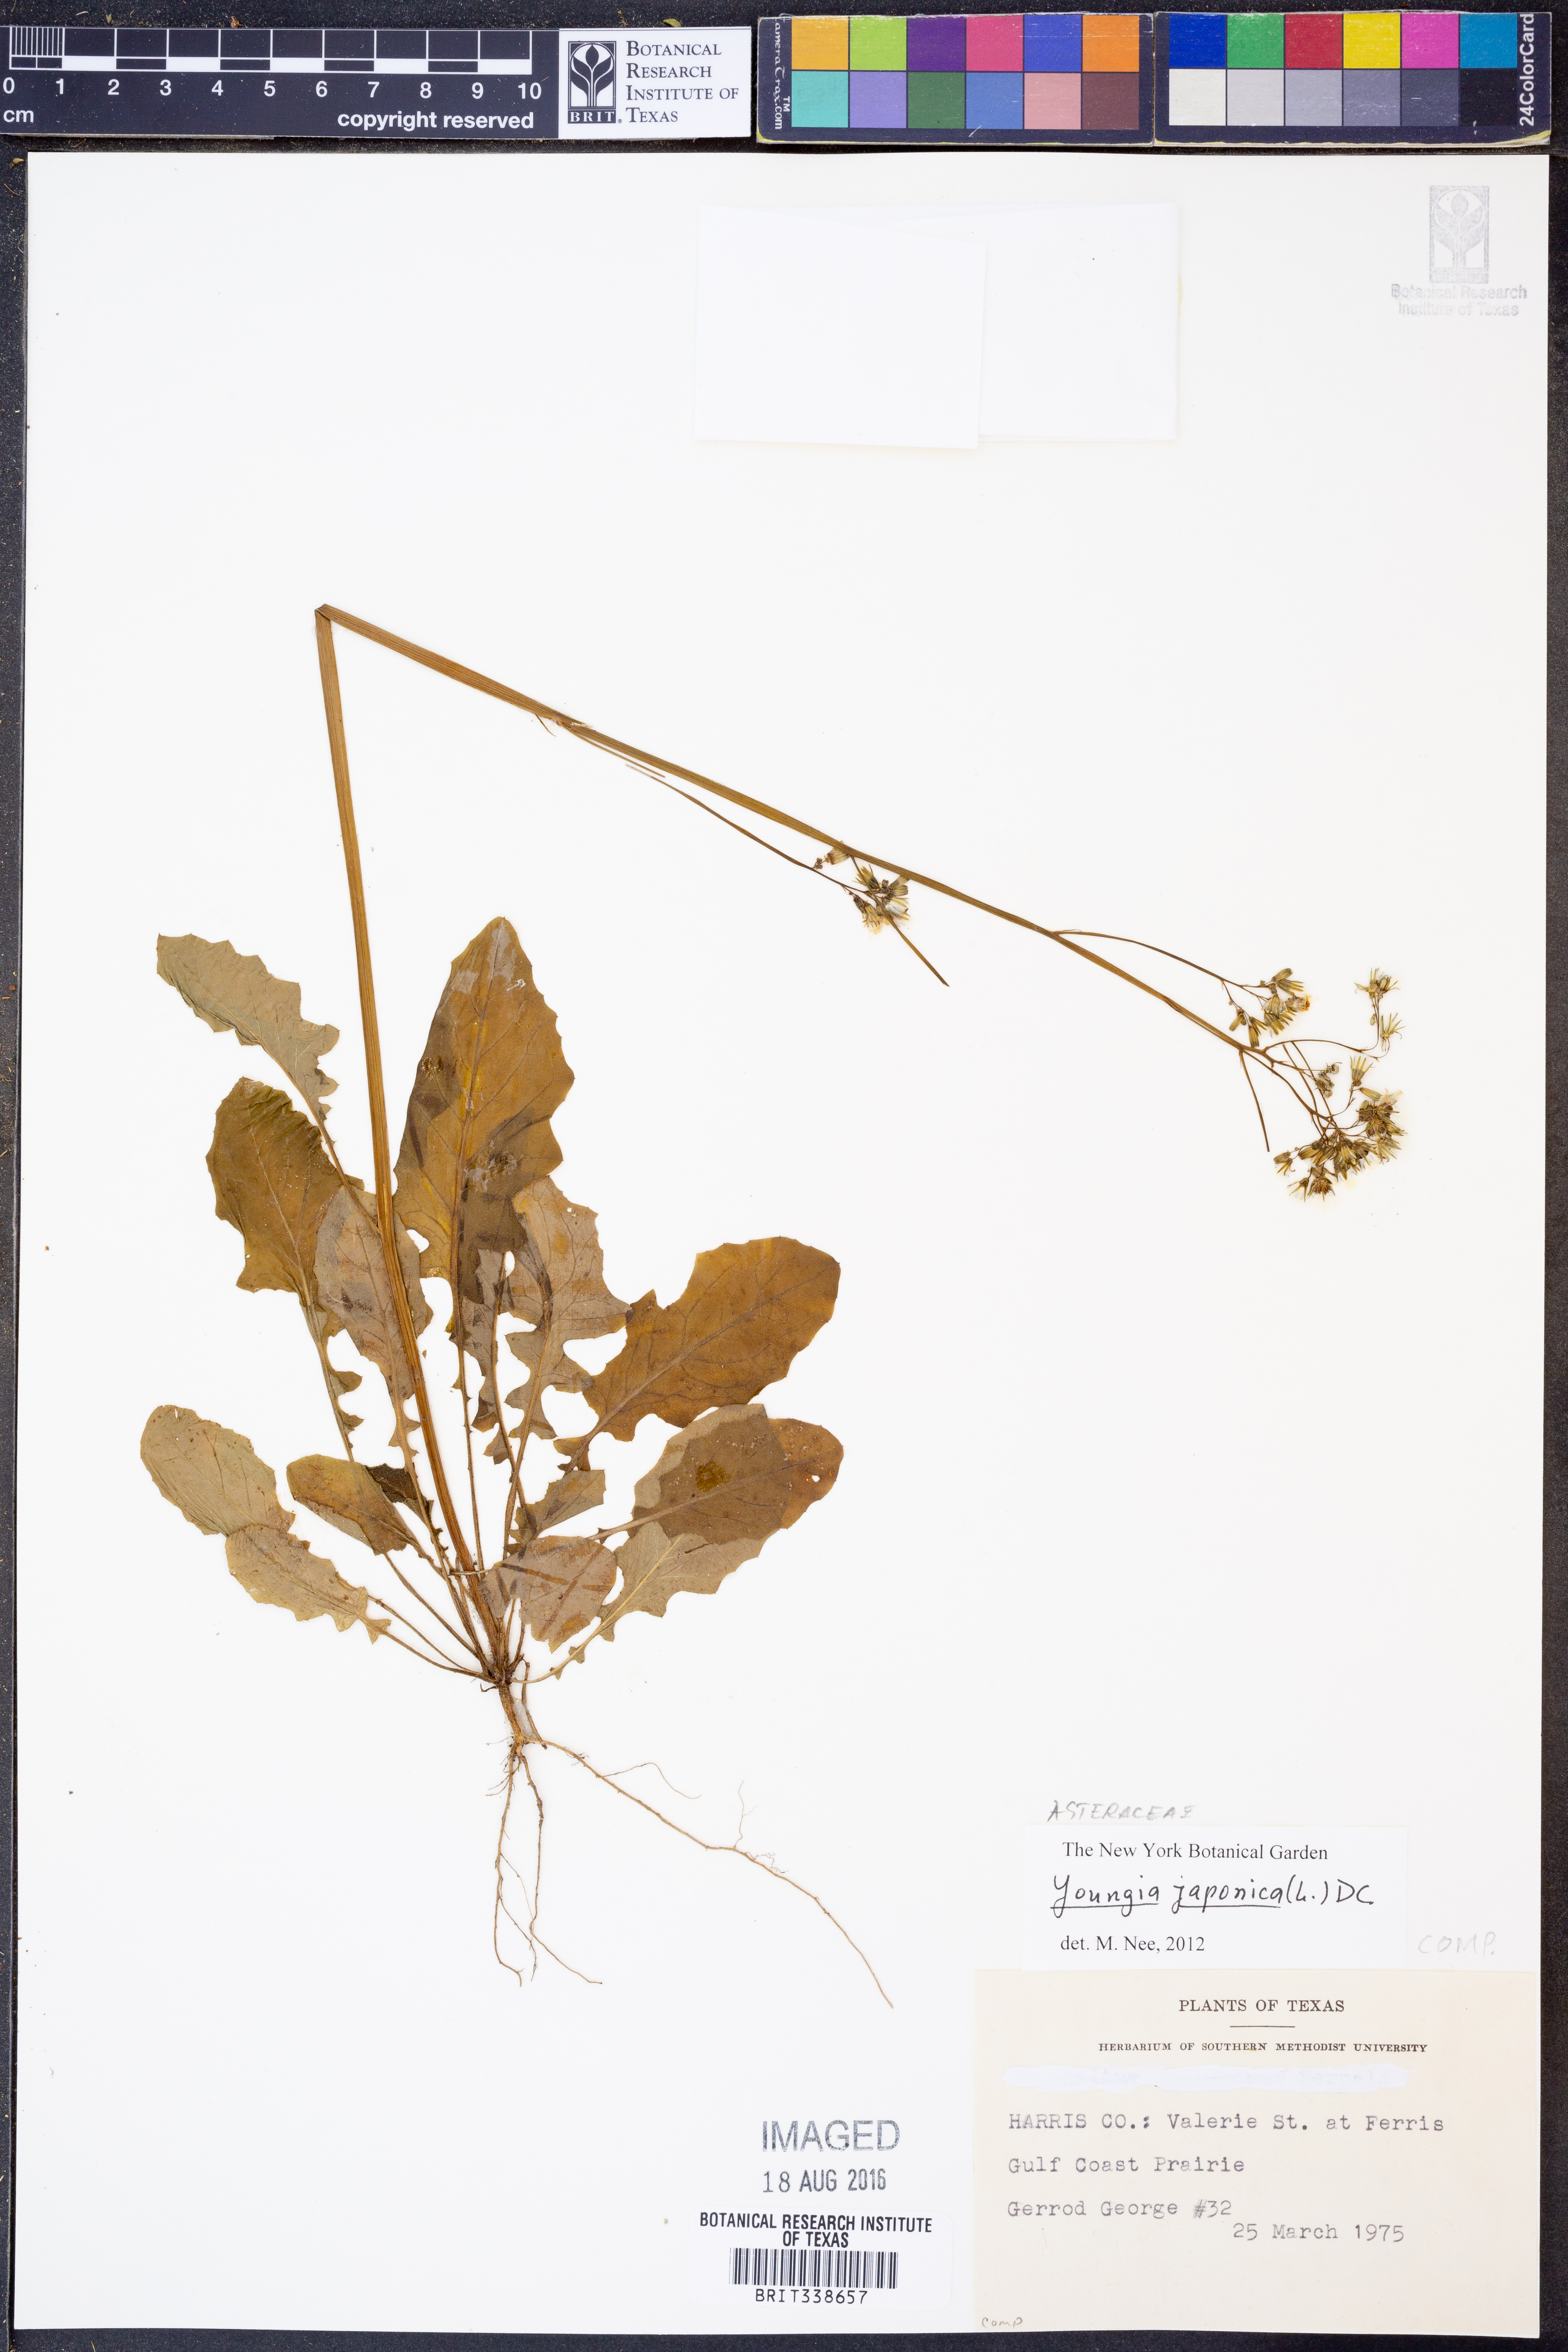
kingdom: Plantae
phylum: Tracheophyta
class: Magnoliopsida
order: Asterales
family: Asteraceae
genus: Youngia
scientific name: Youngia japonica
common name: Oriental false hawksbeard
